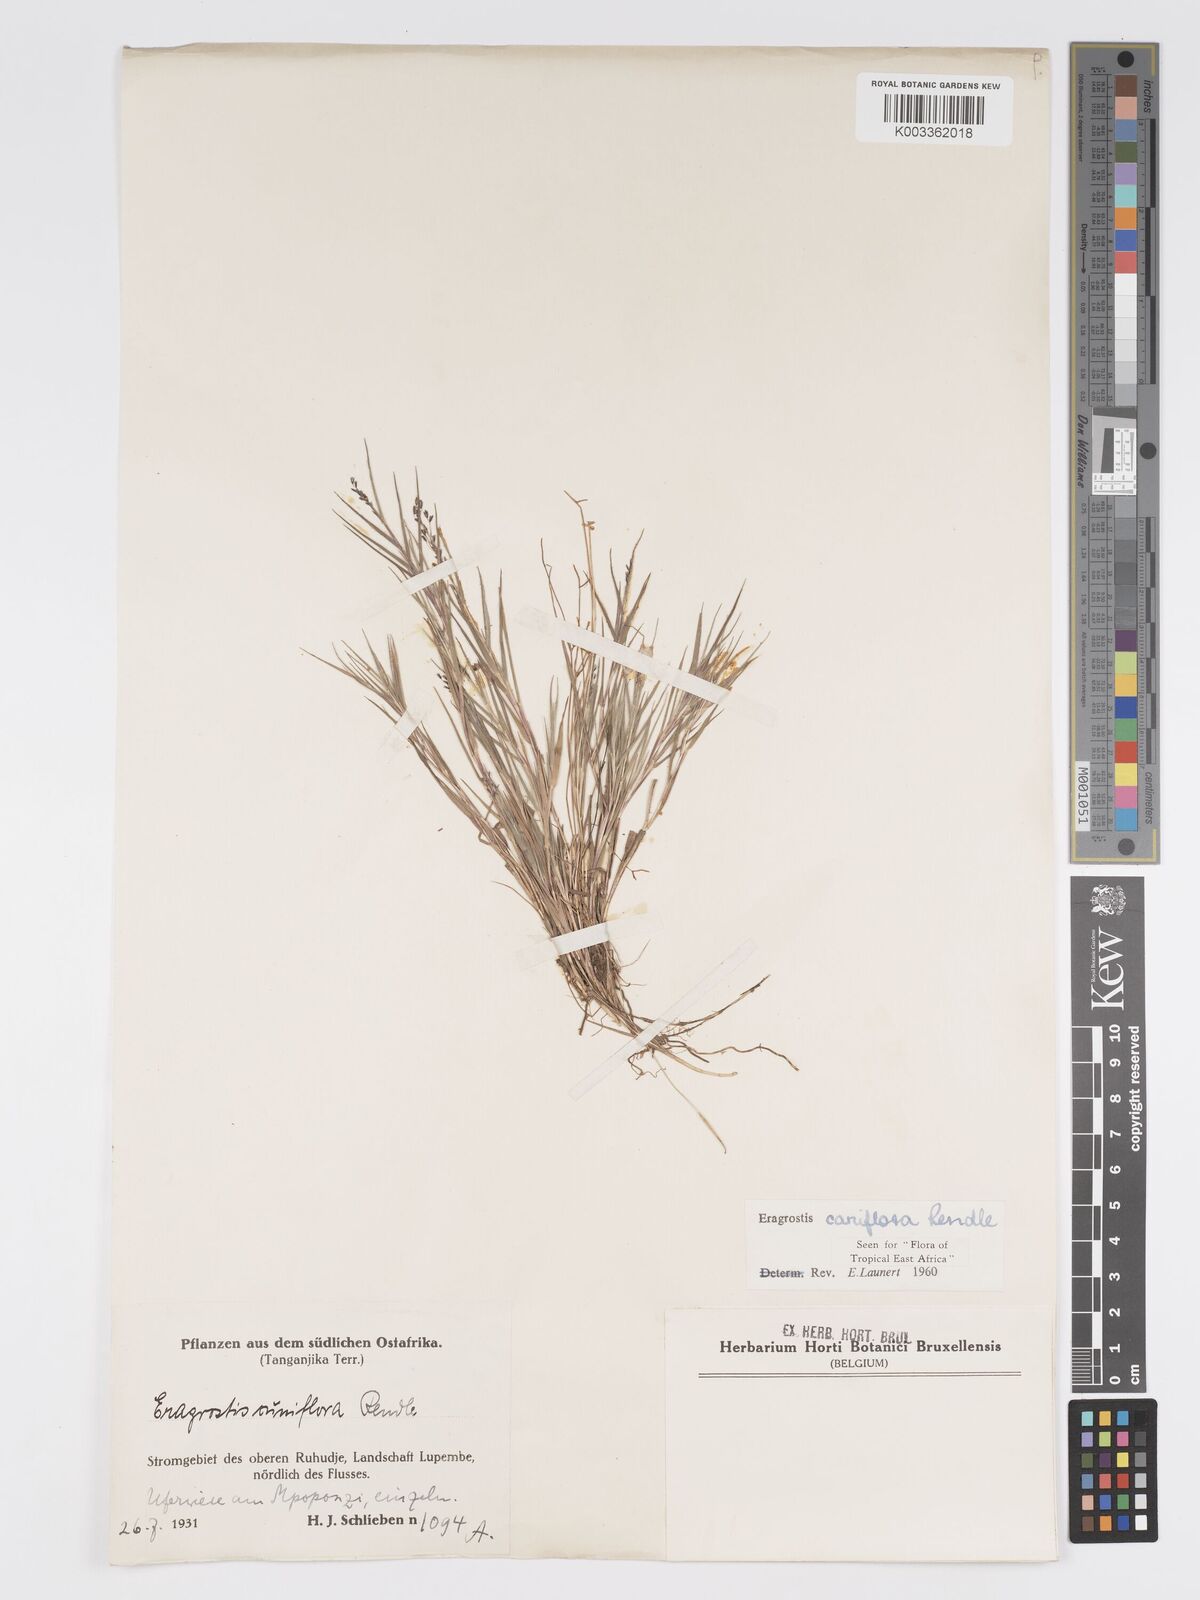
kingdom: Plantae
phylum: Tracheophyta
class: Liliopsida
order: Poales
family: Poaceae
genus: Eragrostis
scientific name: Eragrostis caniflora
